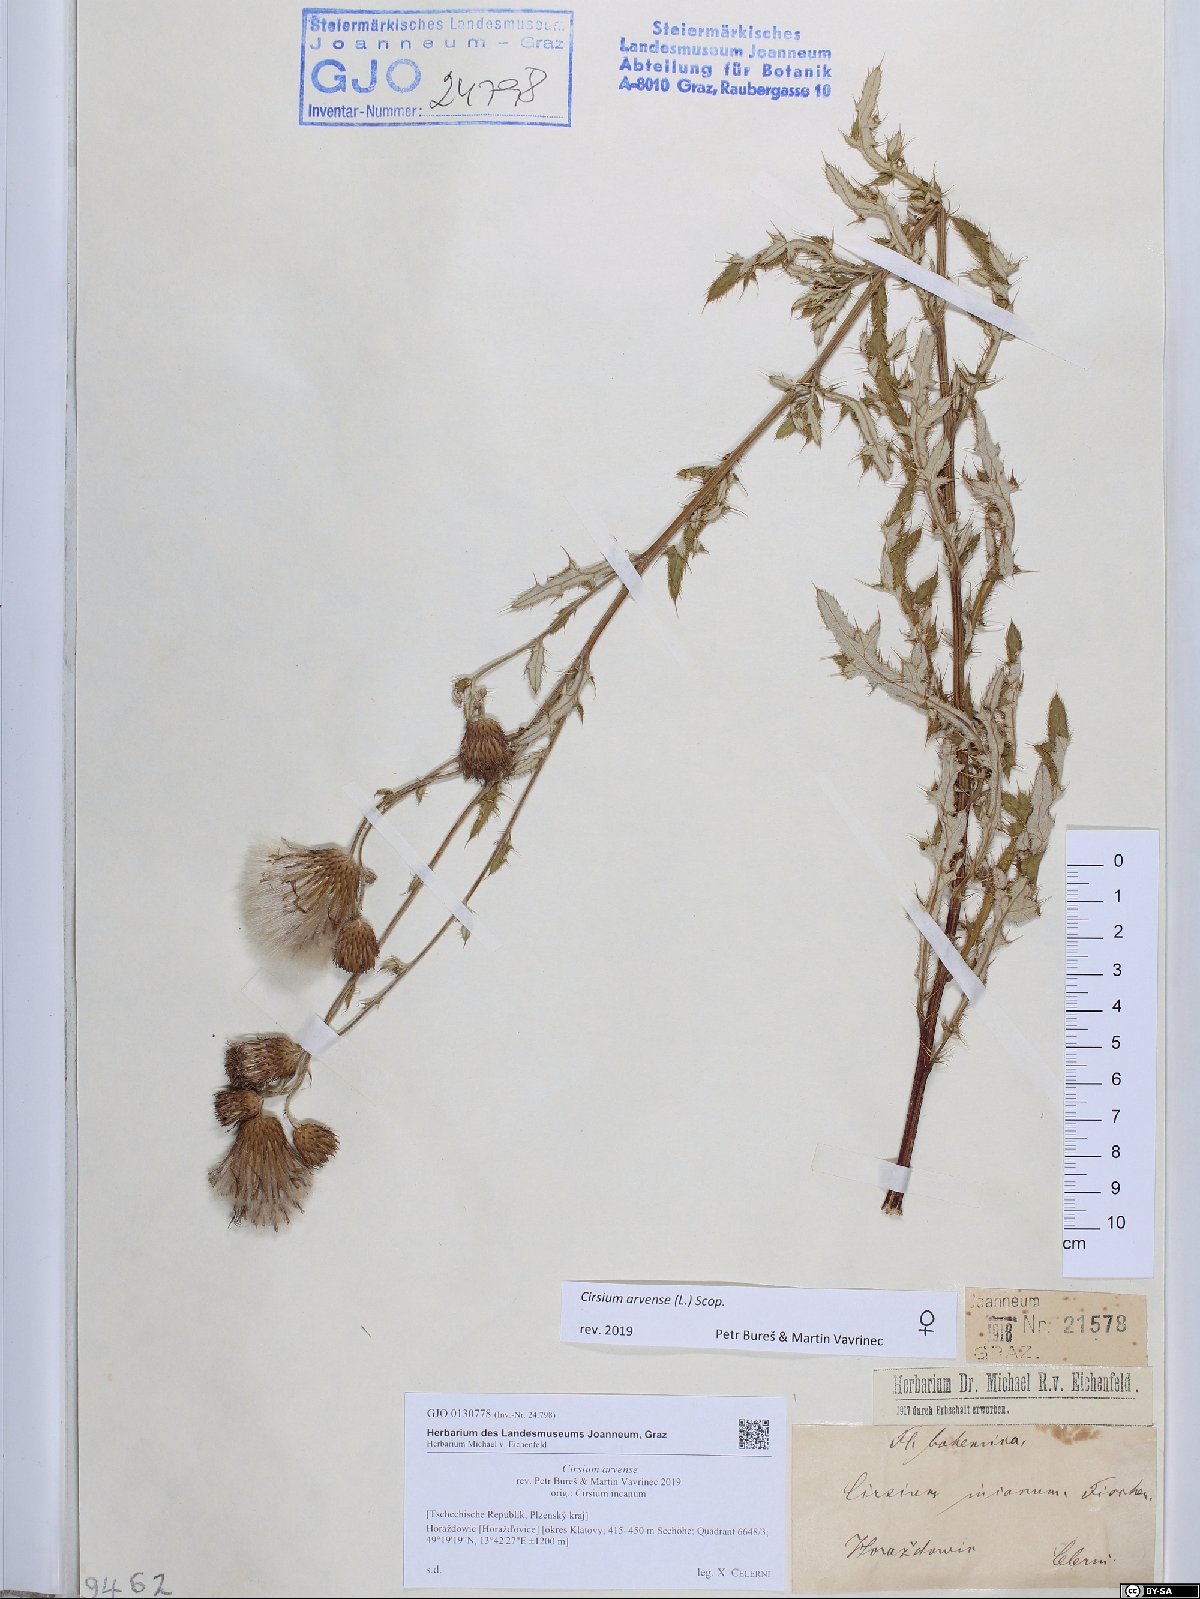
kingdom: Plantae
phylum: Tracheophyta
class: Magnoliopsida
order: Asterales
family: Asteraceae
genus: Cirsium
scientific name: Cirsium arvense
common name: Creeping thistle
